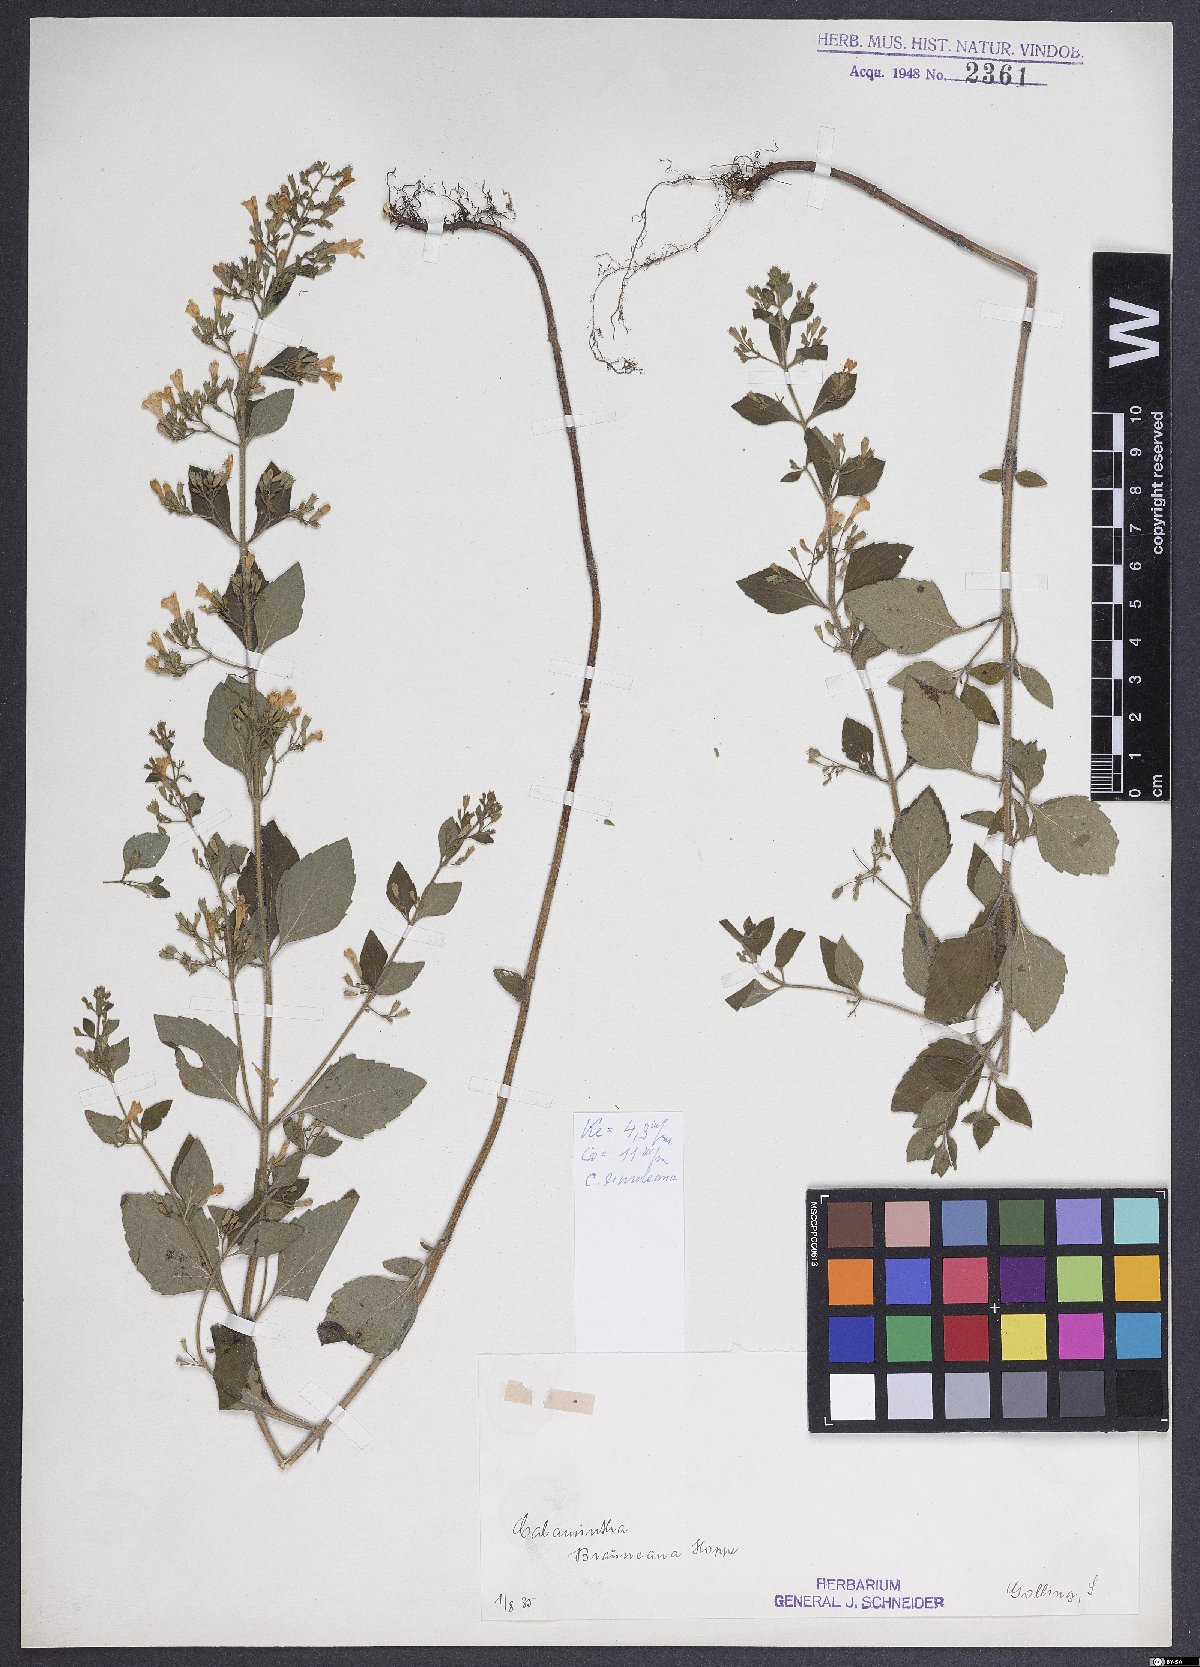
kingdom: Plantae
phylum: Tracheophyta
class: Magnoliopsida
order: Lamiales
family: Lamiaceae
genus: Clinopodium
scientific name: Clinopodium nepeta
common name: Lesser calamint
